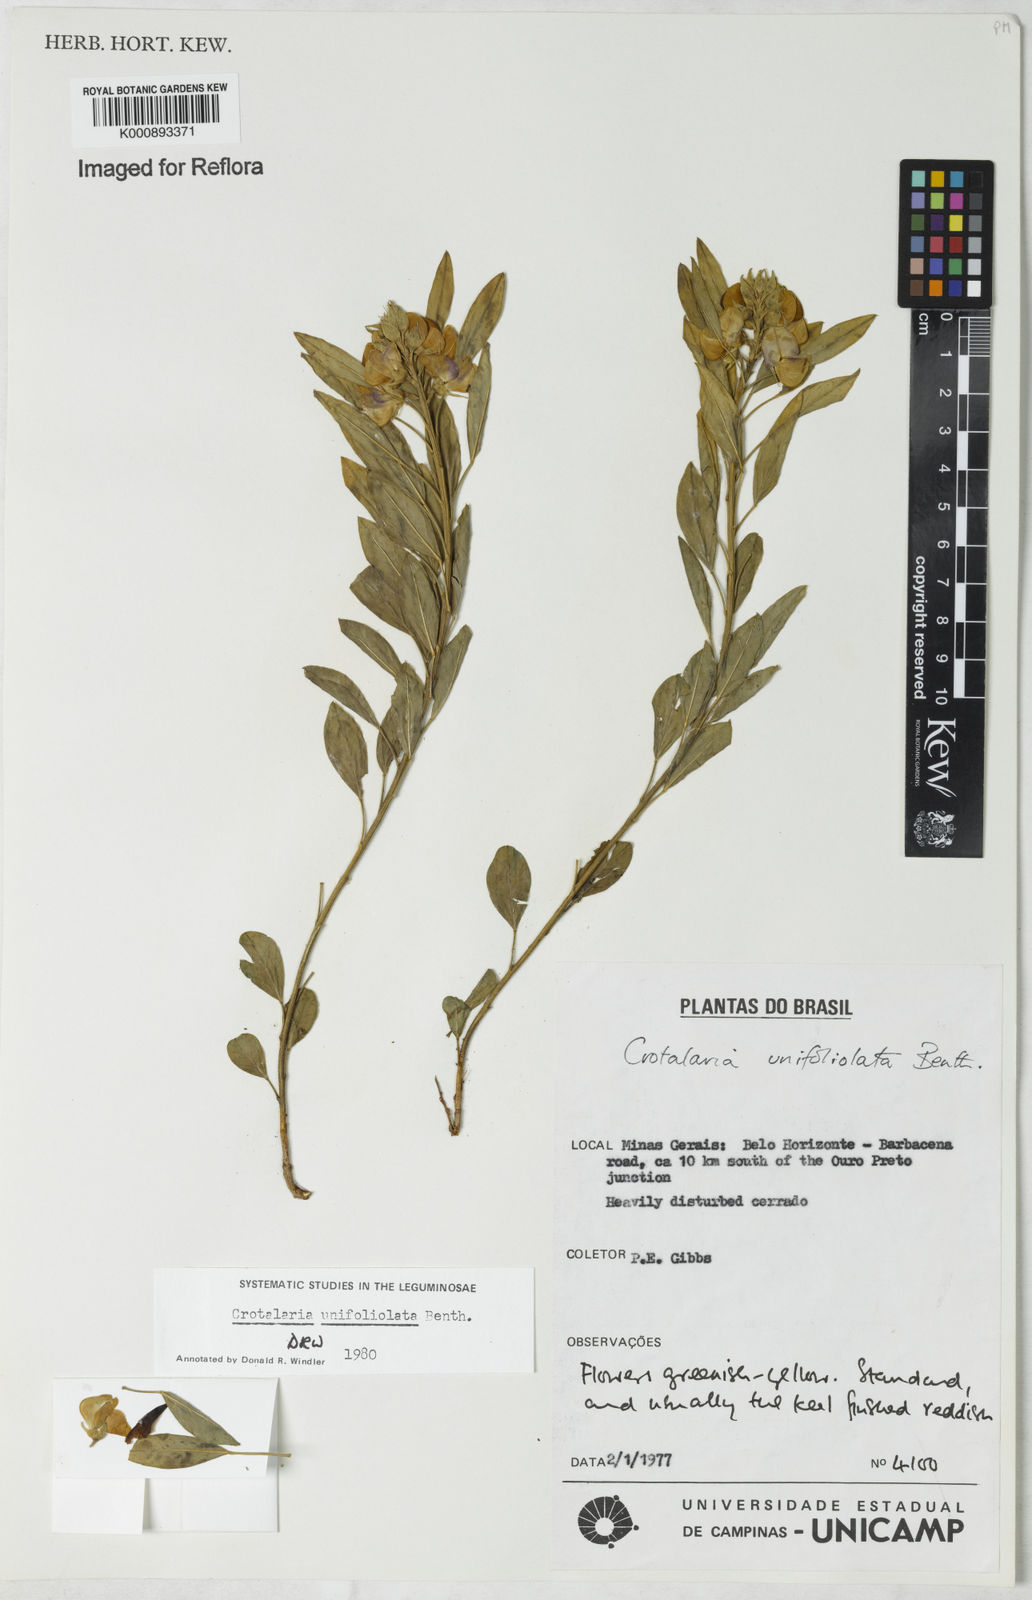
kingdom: Plantae
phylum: Tracheophyta
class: Magnoliopsida
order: Fabales
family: Fabaceae
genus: Crotalaria
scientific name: Crotalaria unifoliolata
